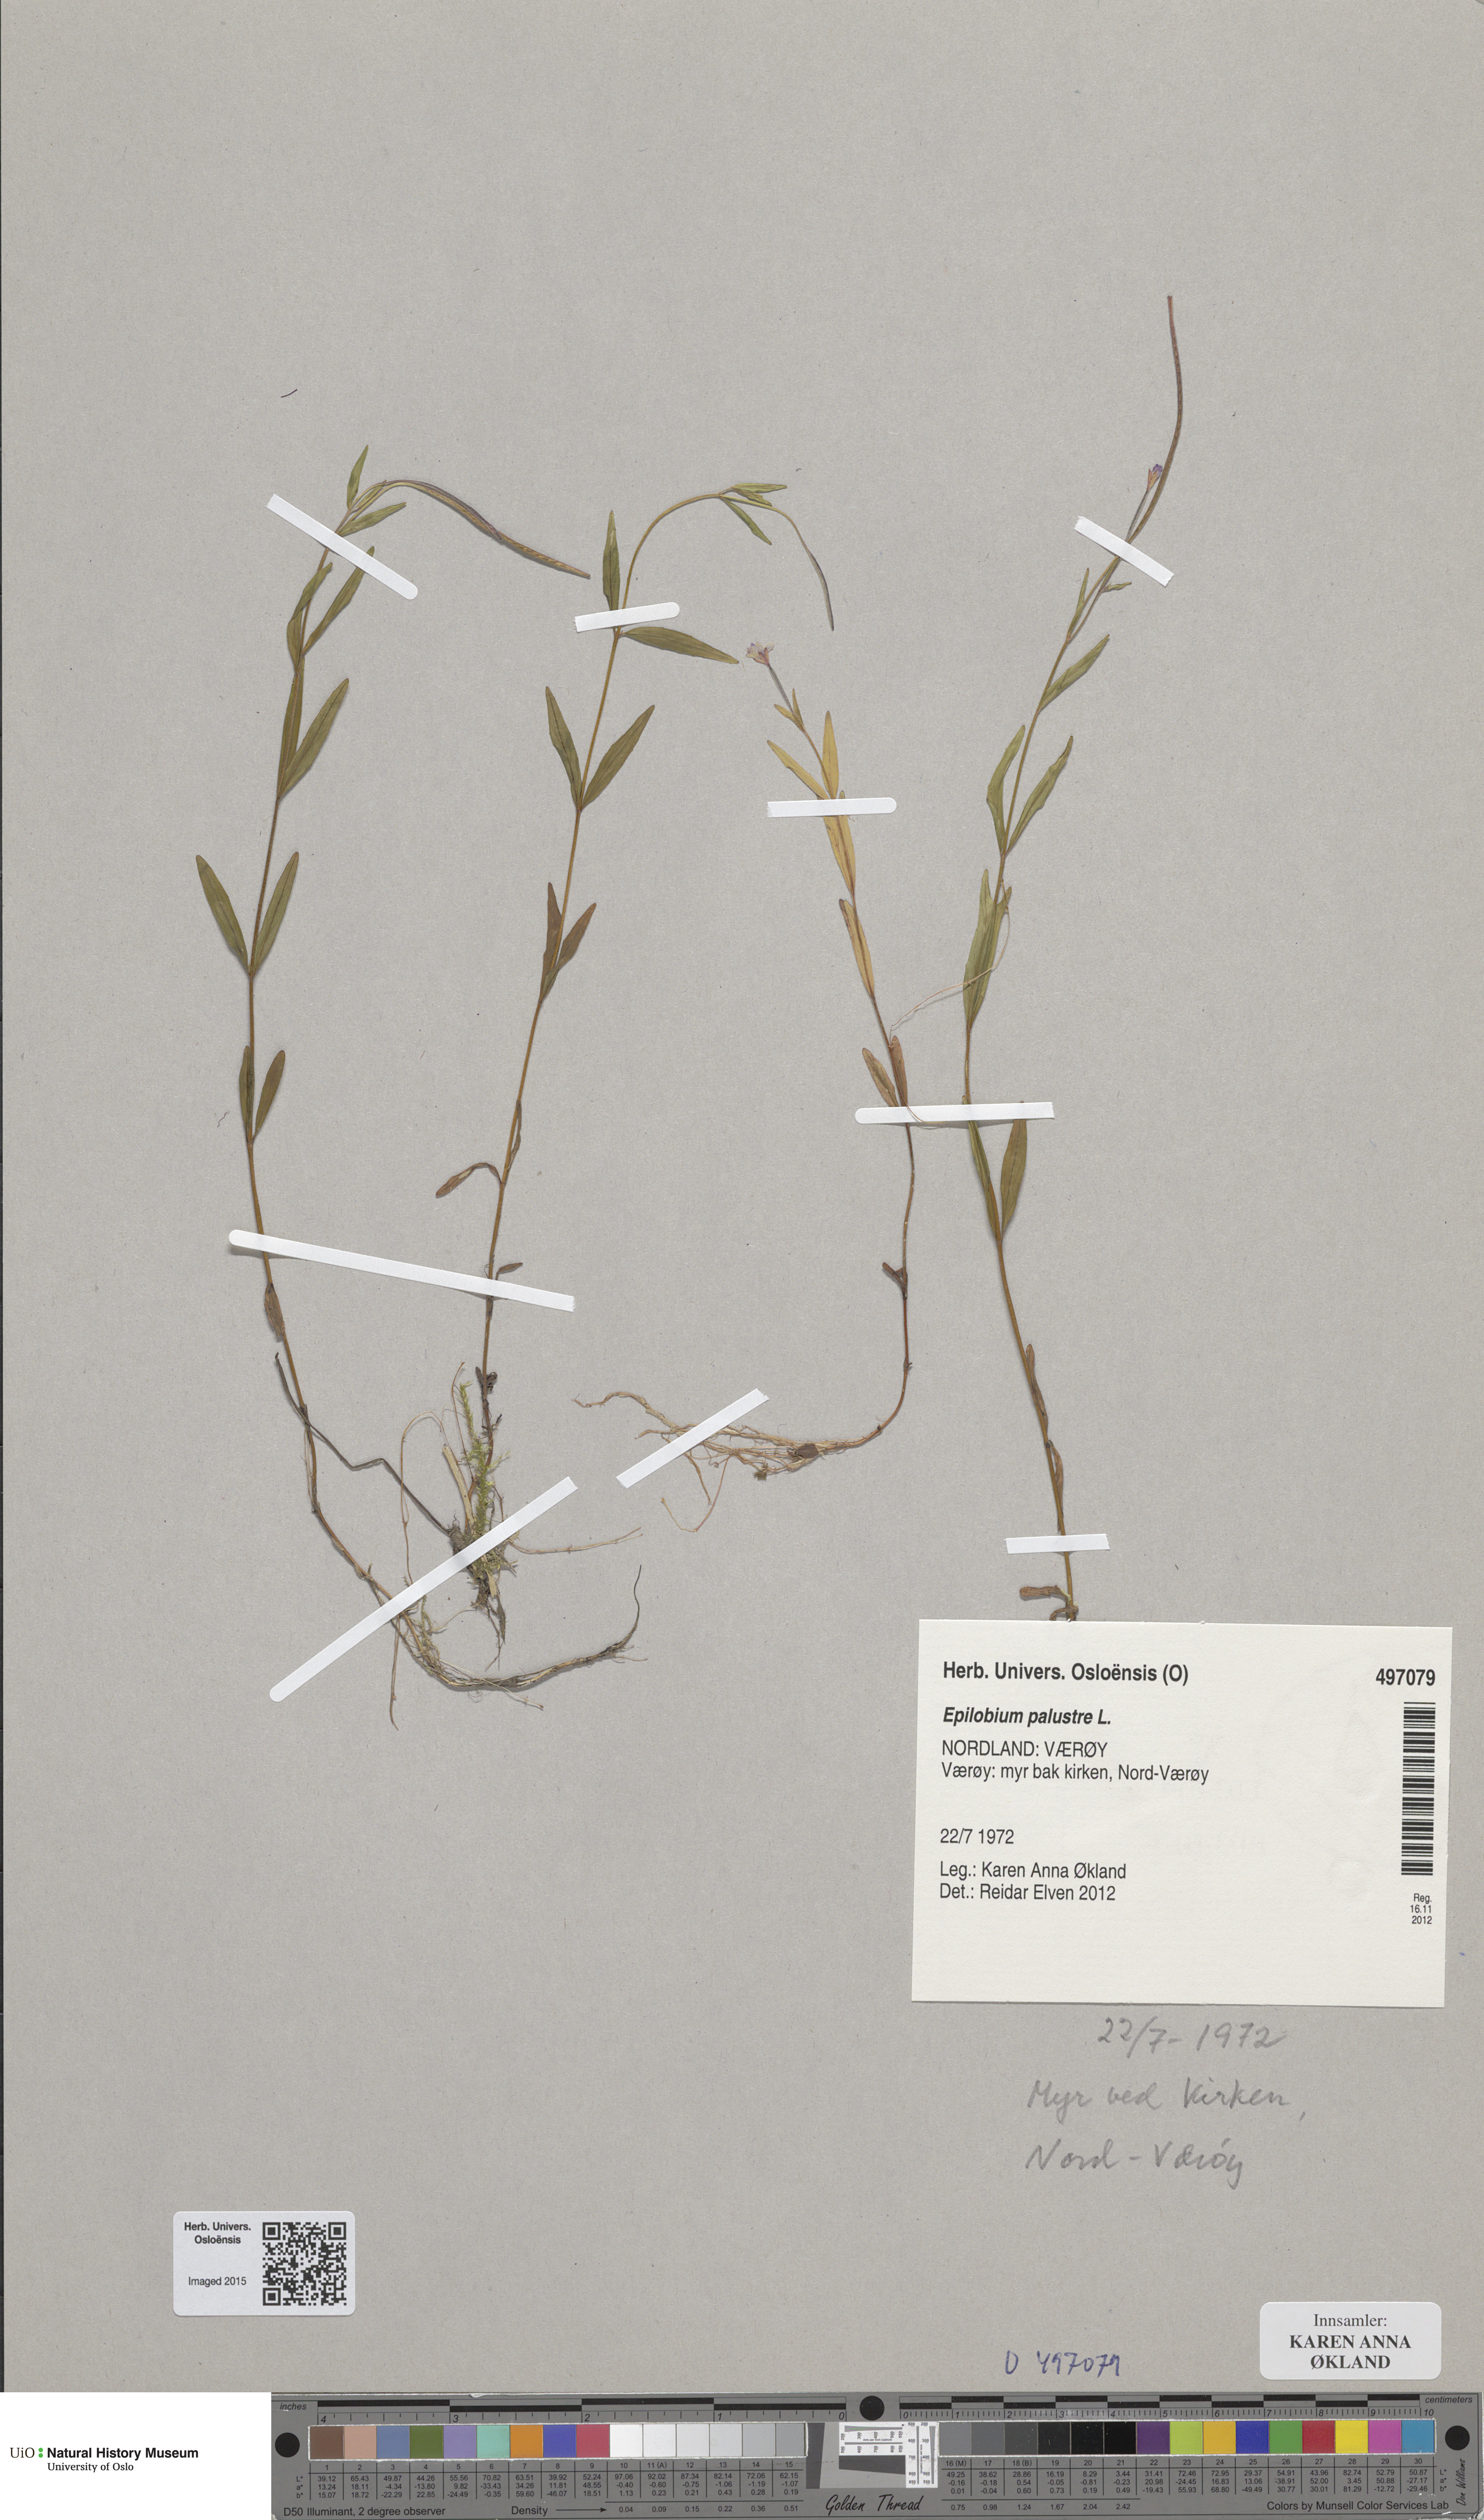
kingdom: Plantae
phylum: Tracheophyta
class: Magnoliopsida
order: Myrtales
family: Onagraceae
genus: Epilobium
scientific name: Epilobium palustre
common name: Marsh willowherb
